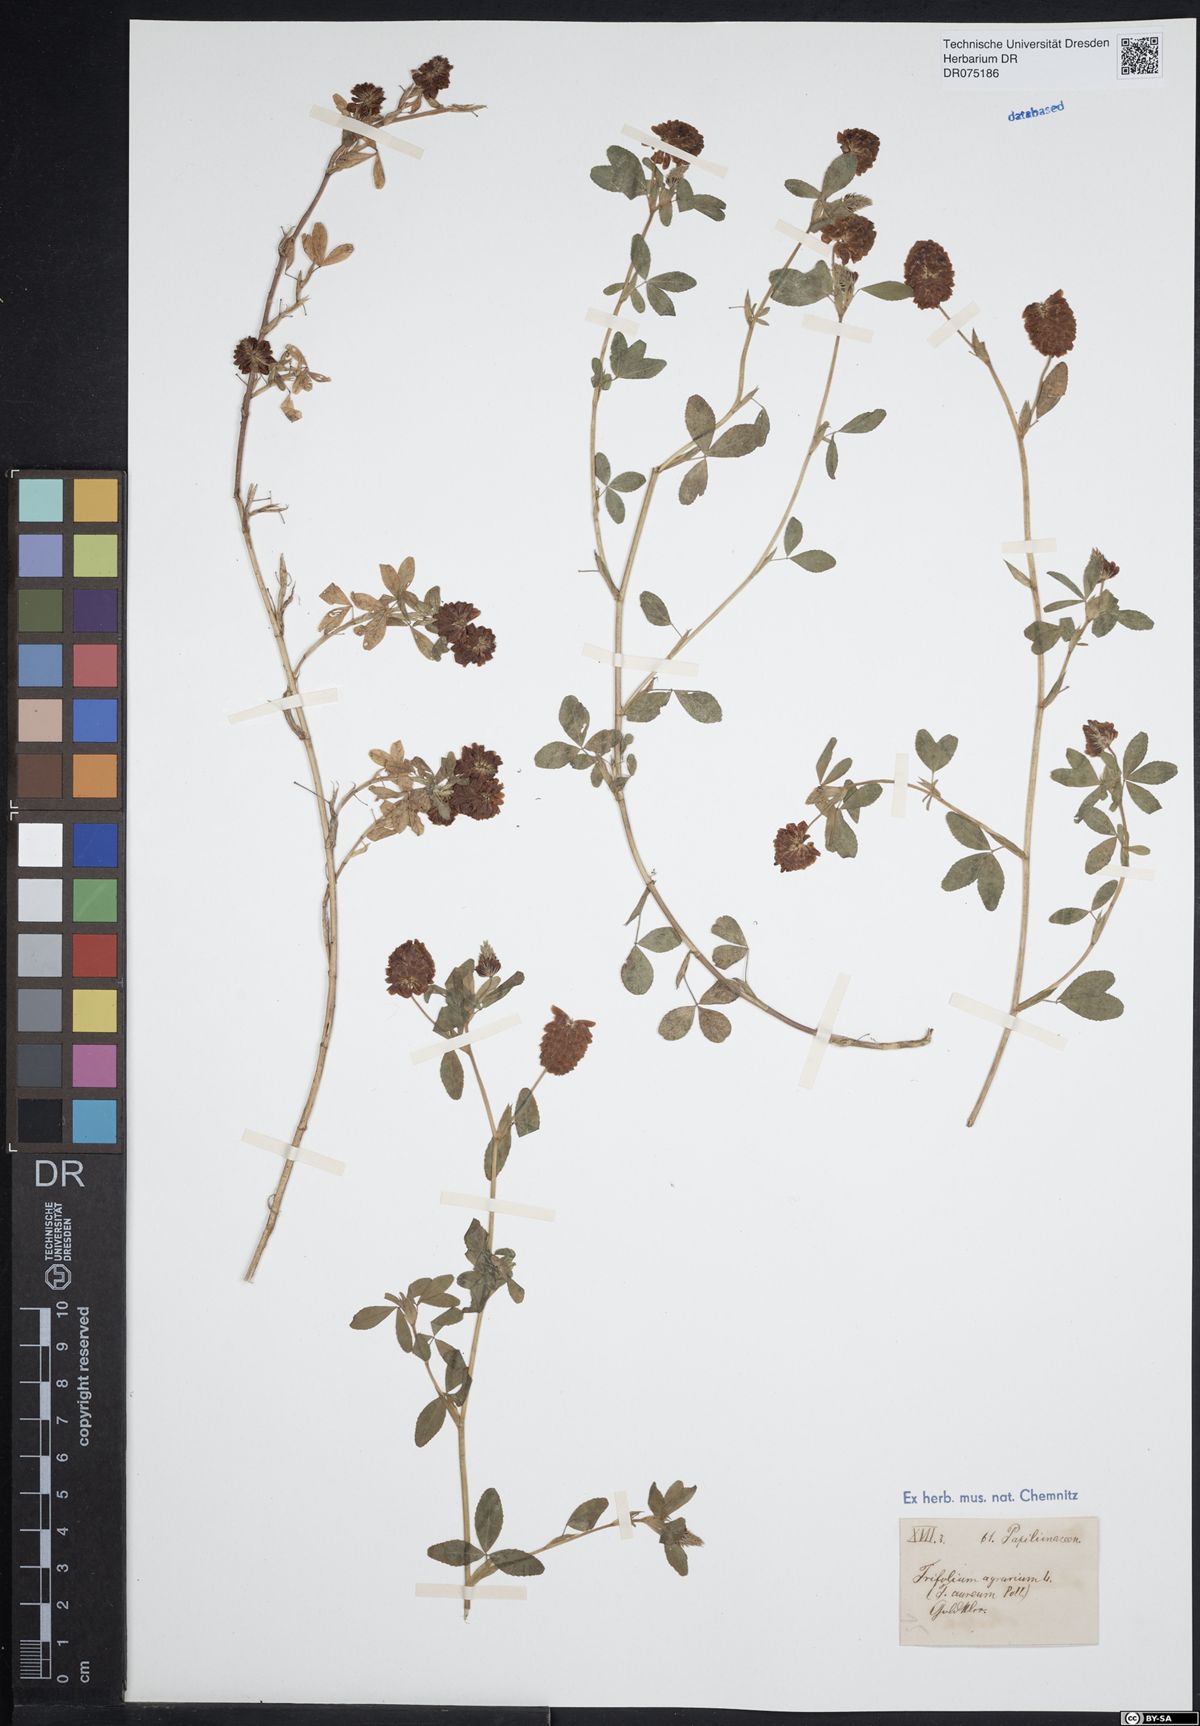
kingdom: Plantae
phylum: Tracheophyta
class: Magnoliopsida
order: Fabales
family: Fabaceae
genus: Trifolium
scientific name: Trifolium aureum
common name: Golden clover
